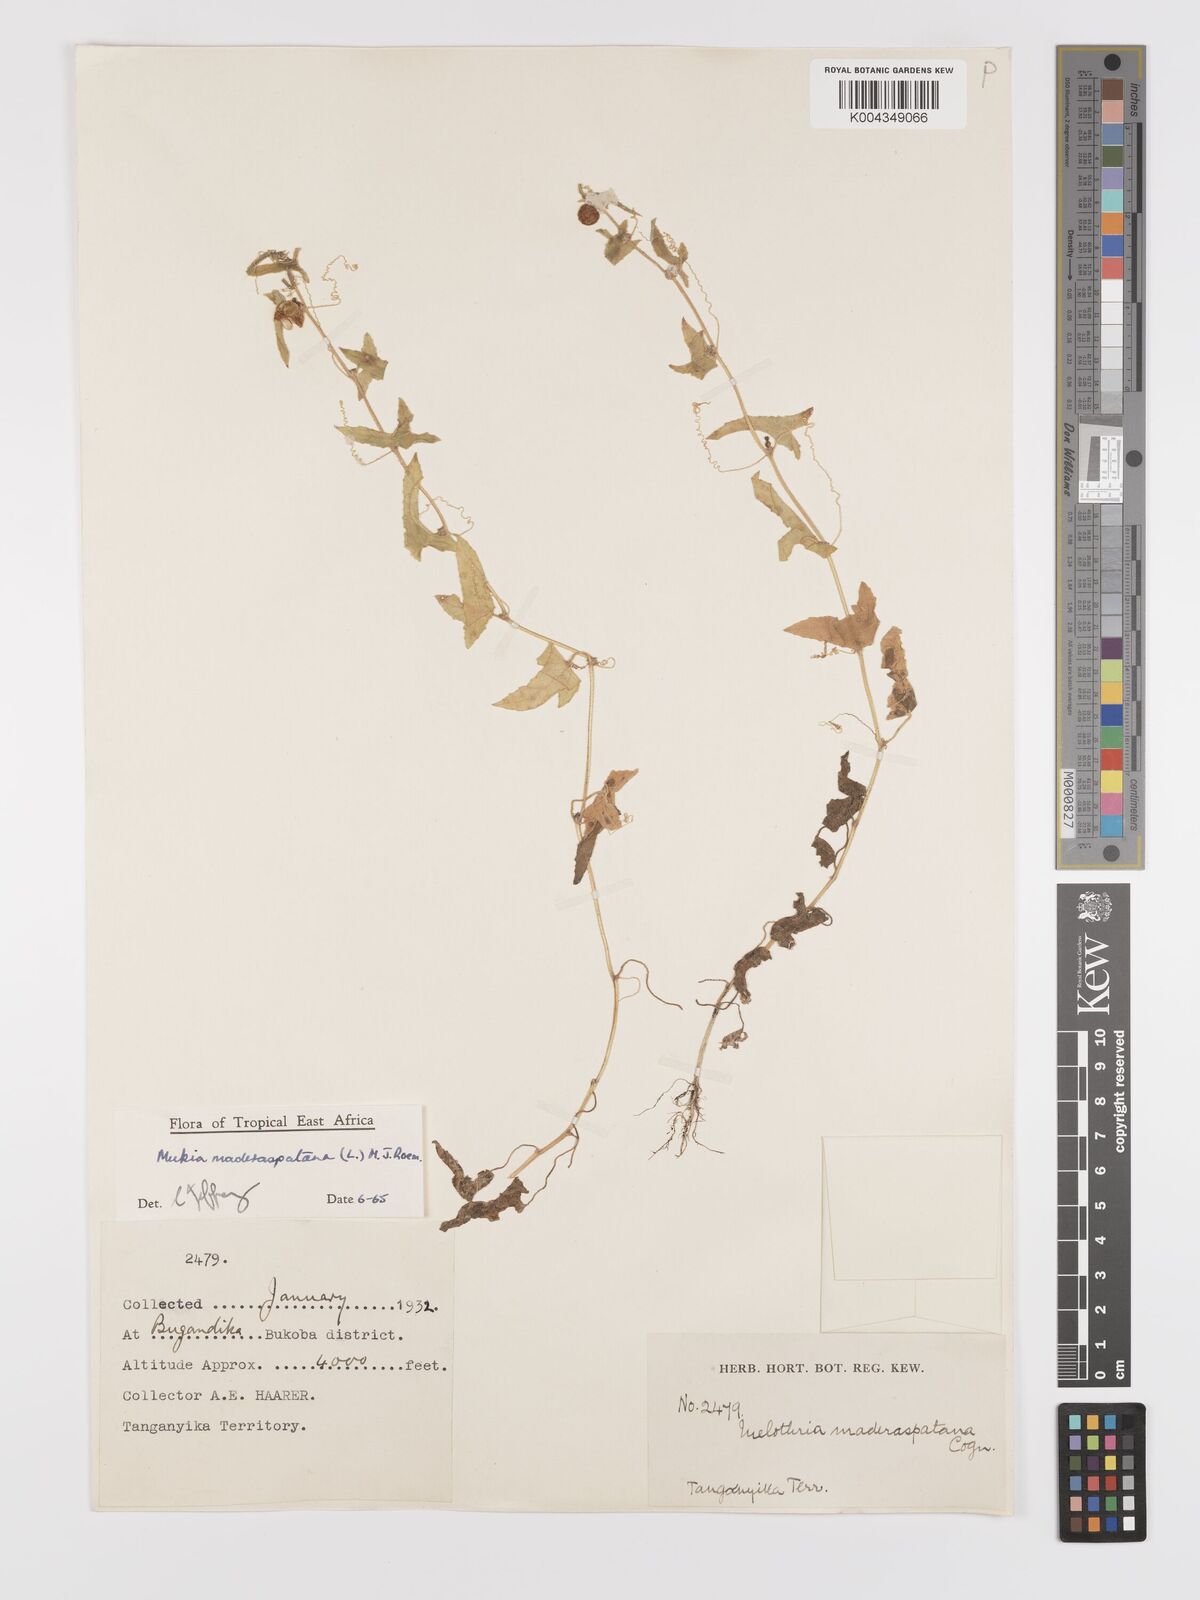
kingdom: Plantae
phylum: Tracheophyta
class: Magnoliopsida
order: Cucurbitales
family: Cucurbitaceae
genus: Cucumis
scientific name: Cucumis maderaspatanus
